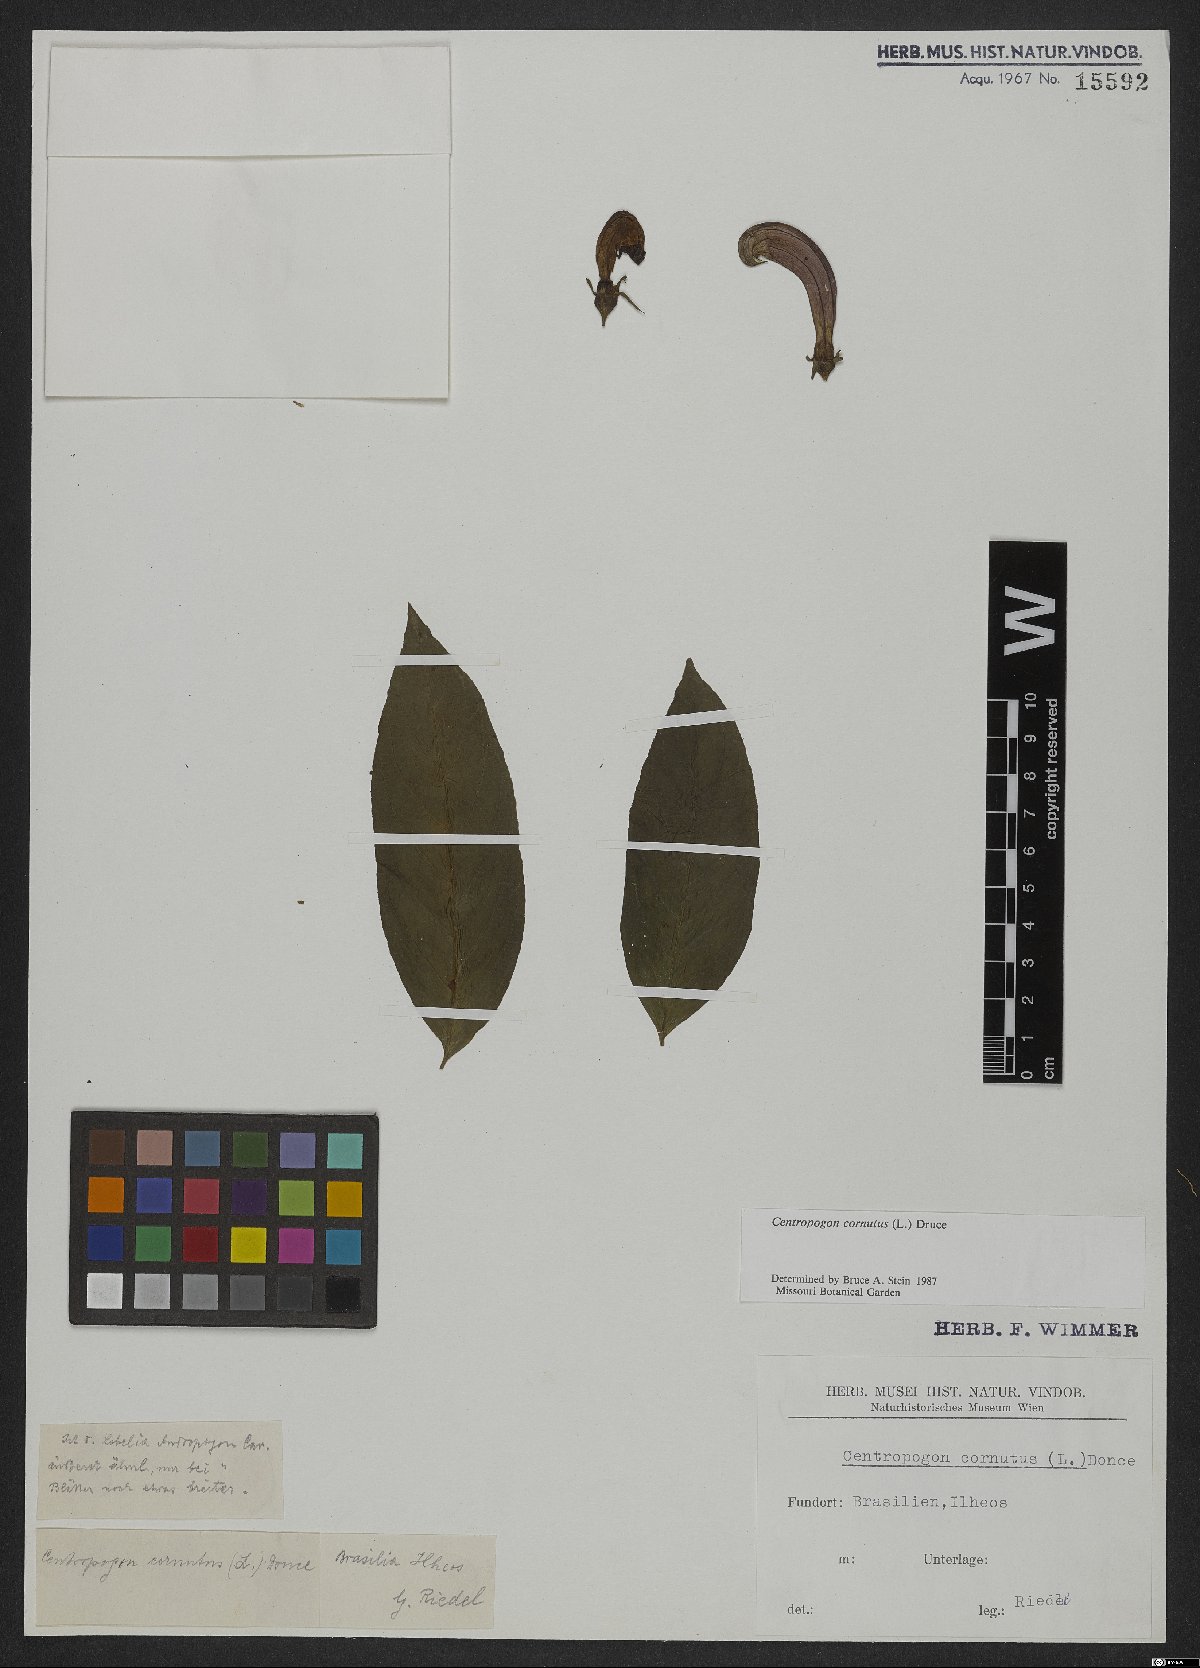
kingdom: Plantae
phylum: Tracheophyta
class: Magnoliopsida
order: Asterales
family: Campanulaceae
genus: Centropogon
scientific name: Centropogon cornutus
